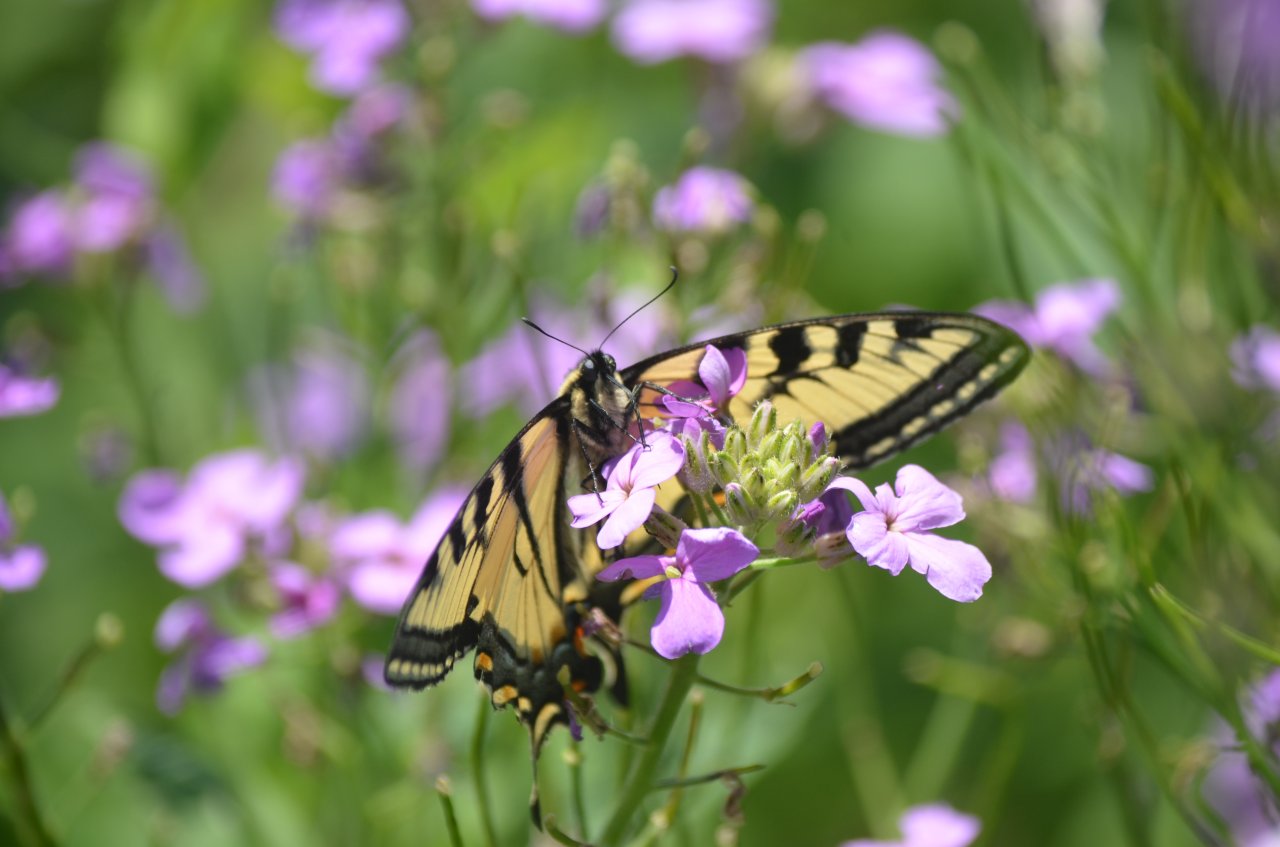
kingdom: Animalia
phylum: Arthropoda
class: Insecta
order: Lepidoptera
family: Papilionidae
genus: Pterourus
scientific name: Pterourus canadensis
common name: Canadian Tiger Swallowtail
